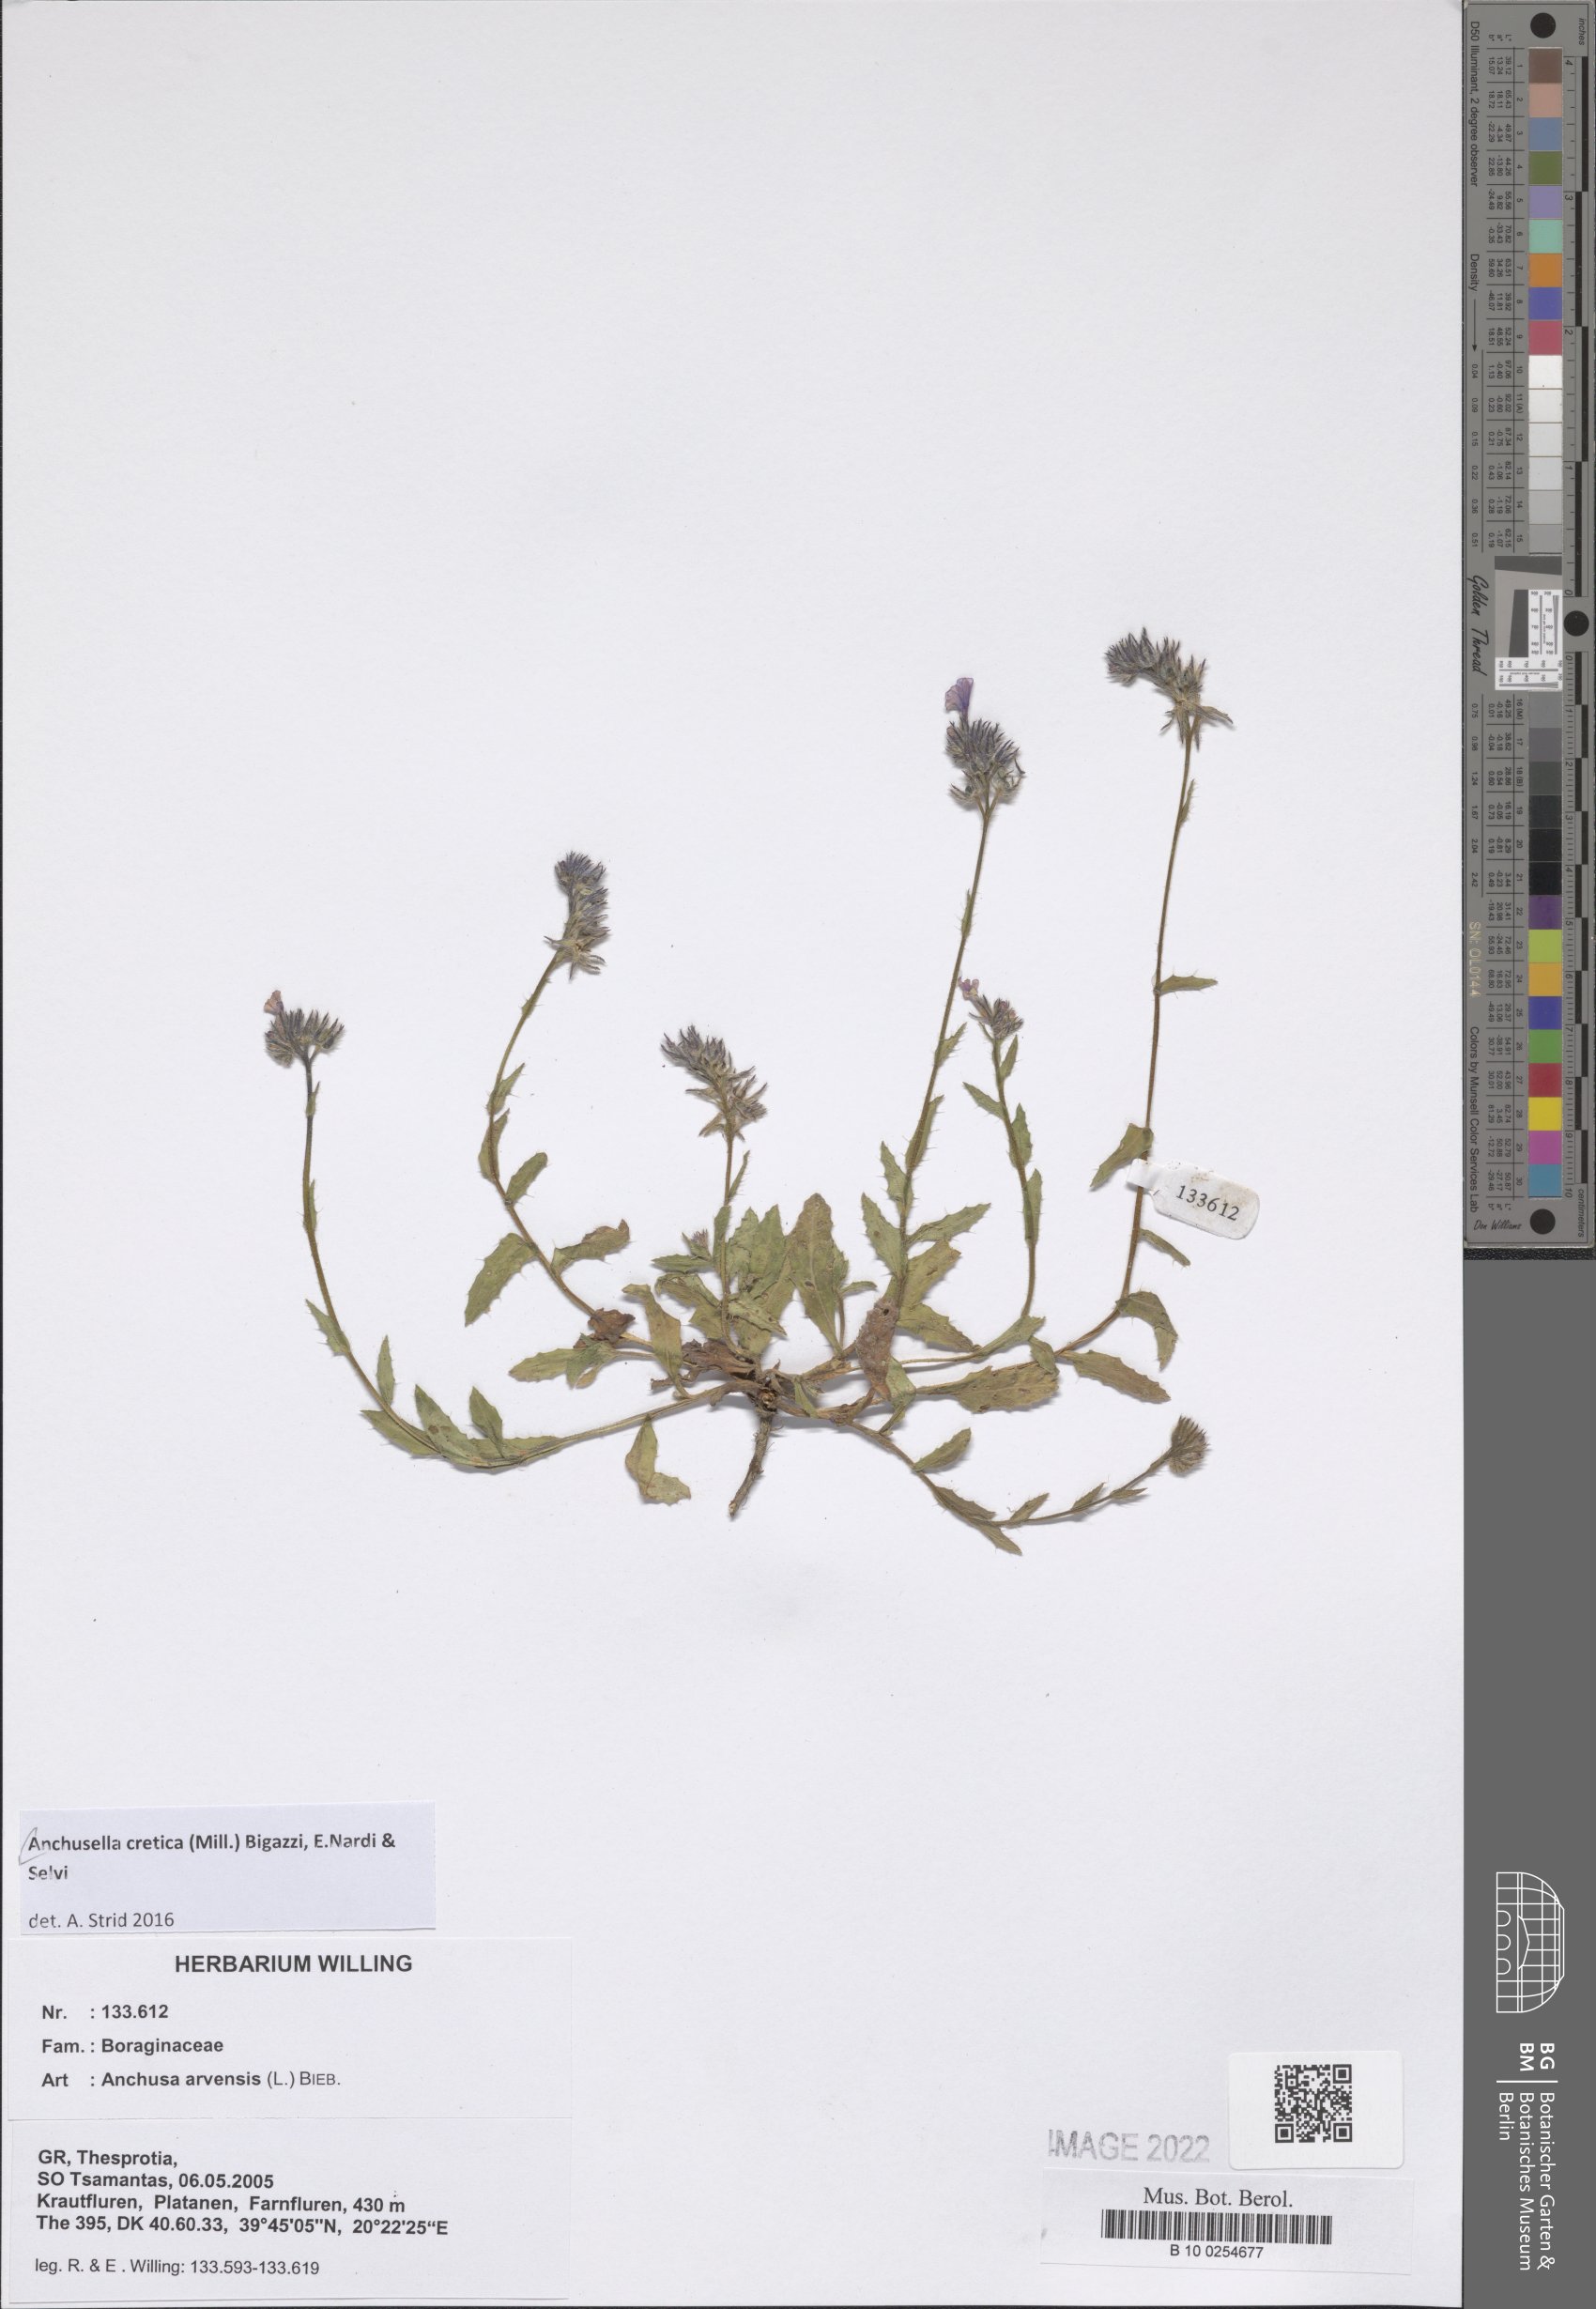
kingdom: Plantae
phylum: Tracheophyta
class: Magnoliopsida
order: Boraginales
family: Boraginaceae
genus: Anchusella
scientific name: Anchusella cretica
